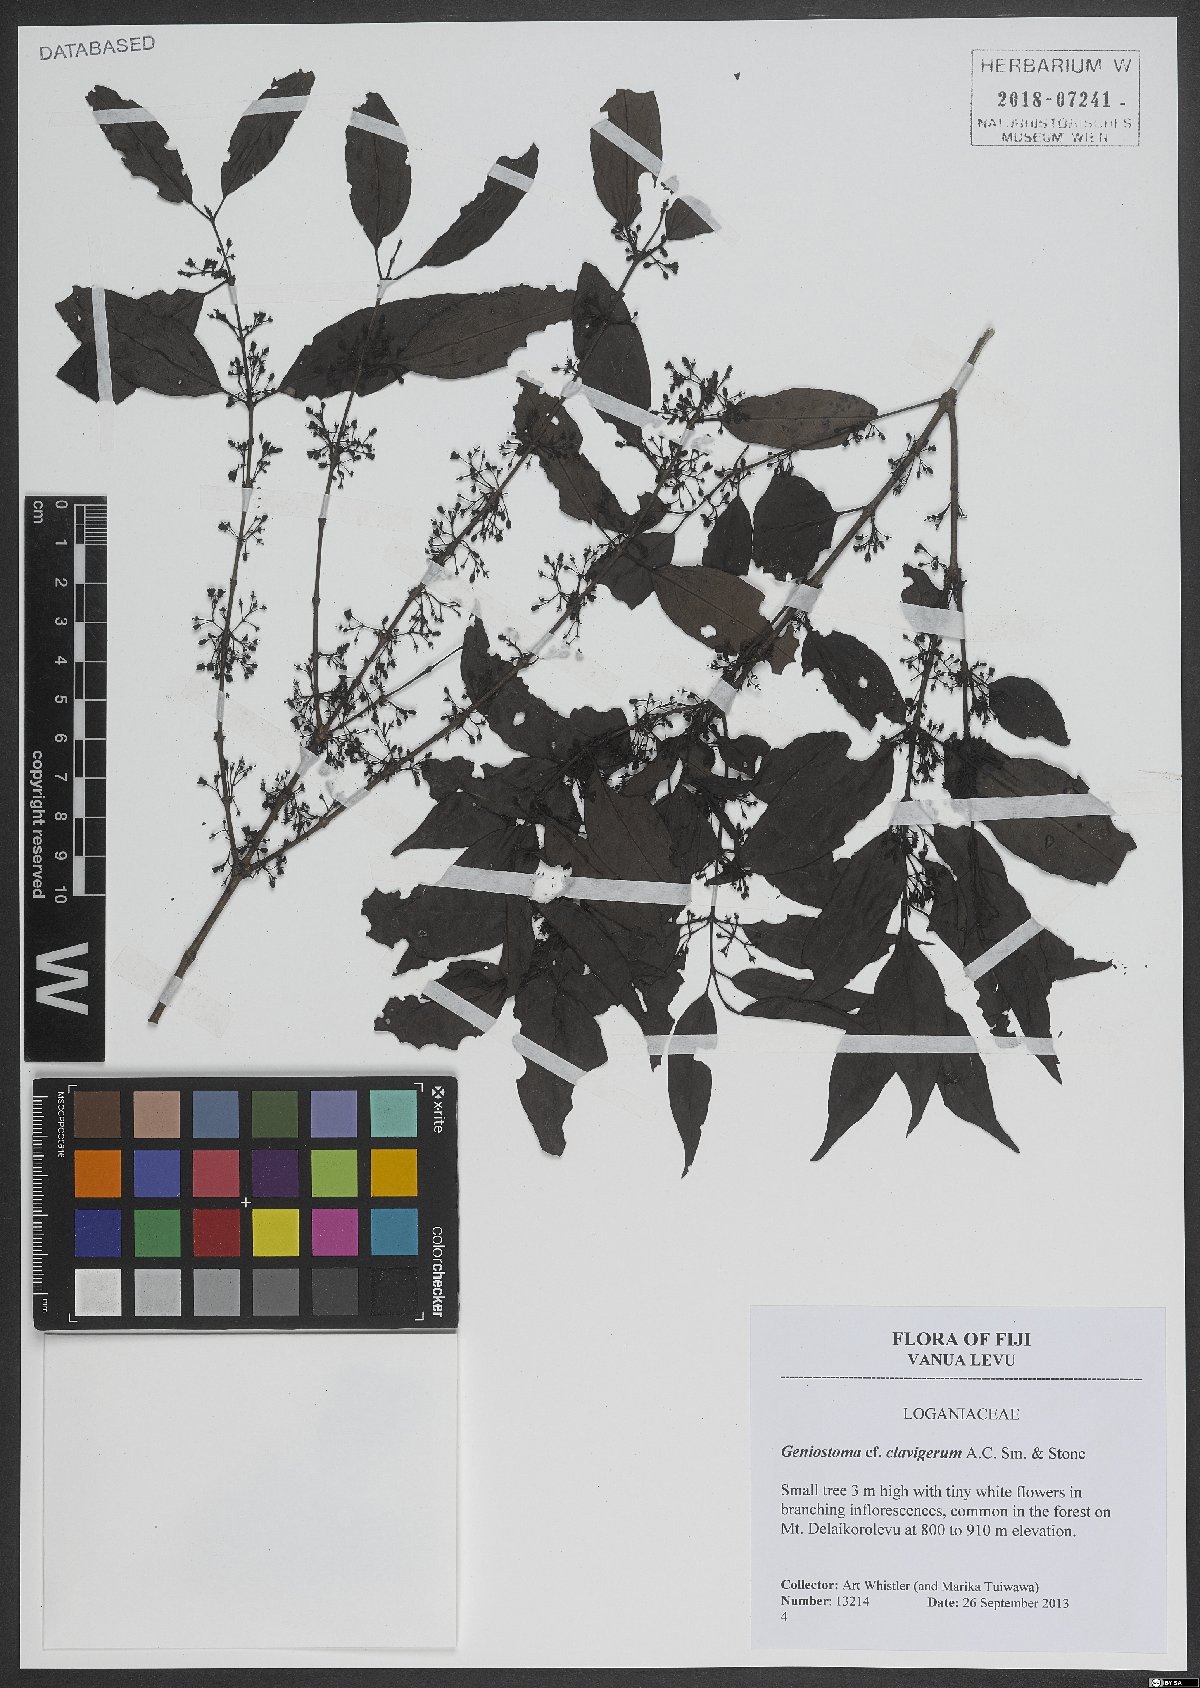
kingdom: Plantae
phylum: Tracheophyta
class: Magnoliopsida
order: Gentianales
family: Loganiaceae
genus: Geniostoma
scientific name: Geniostoma rupestre
